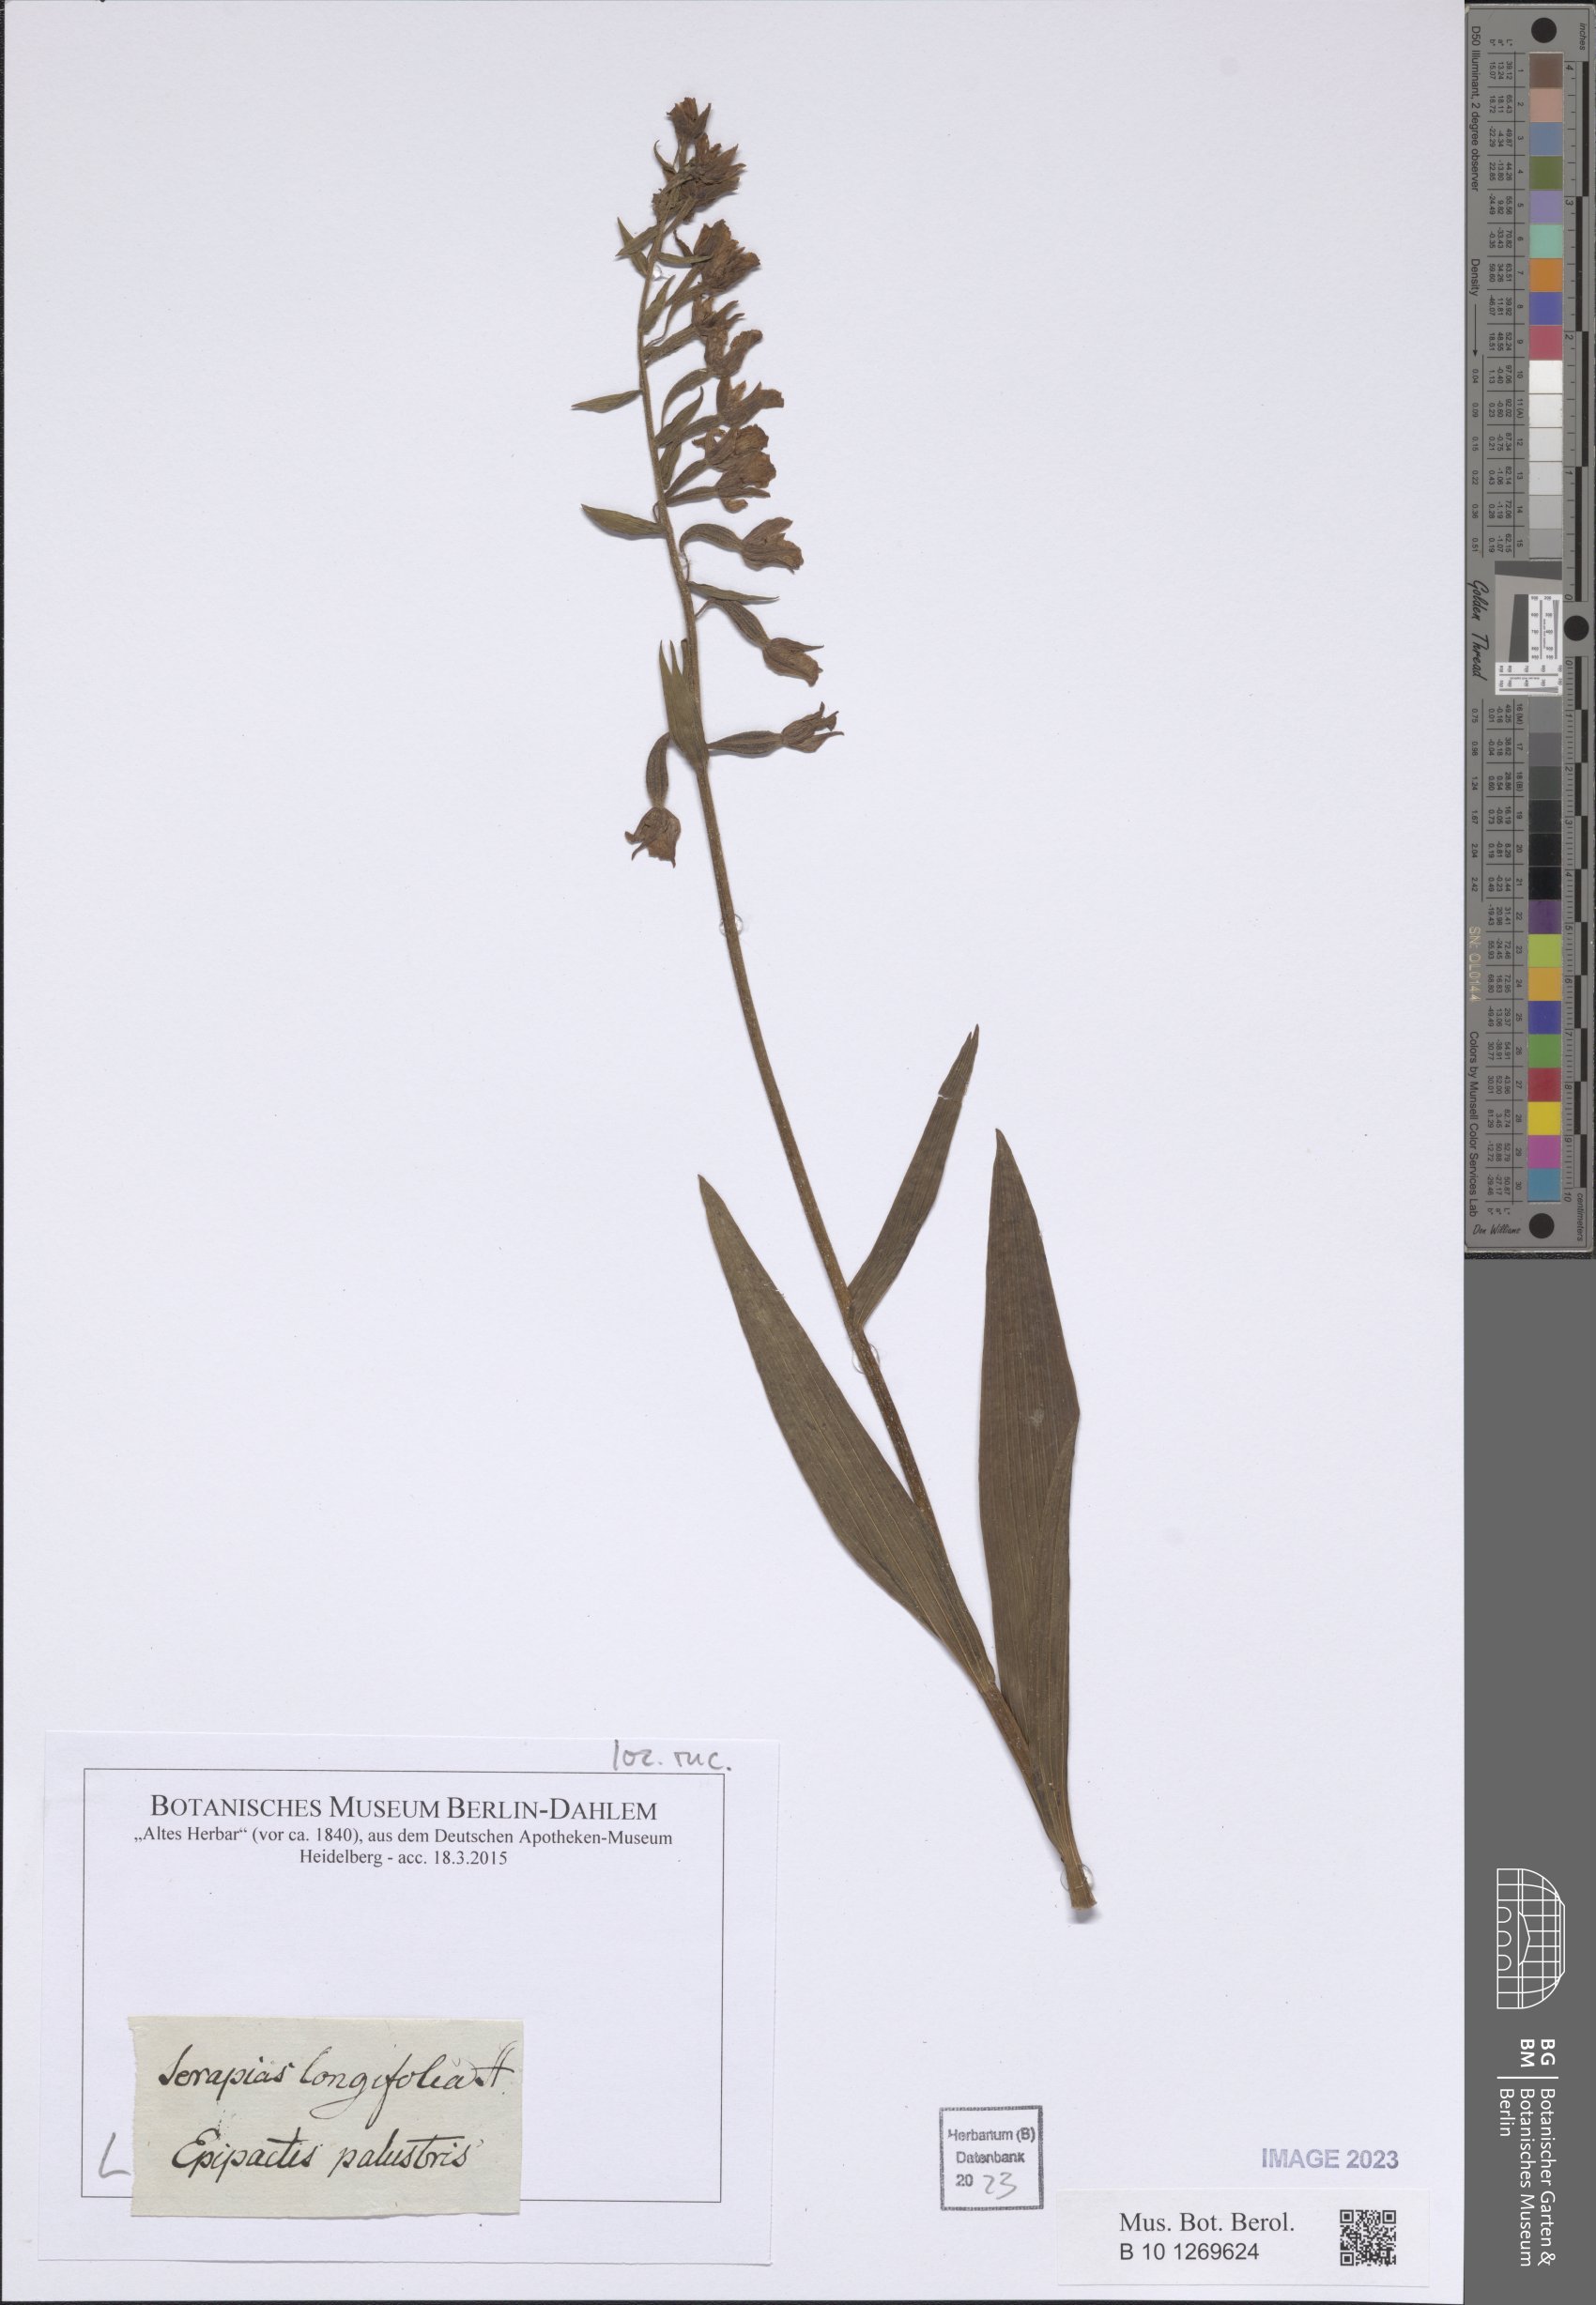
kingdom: Plantae
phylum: Tracheophyta
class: Liliopsida
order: Asparagales
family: Orchidaceae
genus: Epipactis
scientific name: Epipactis palustris
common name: Marsh helleborine
